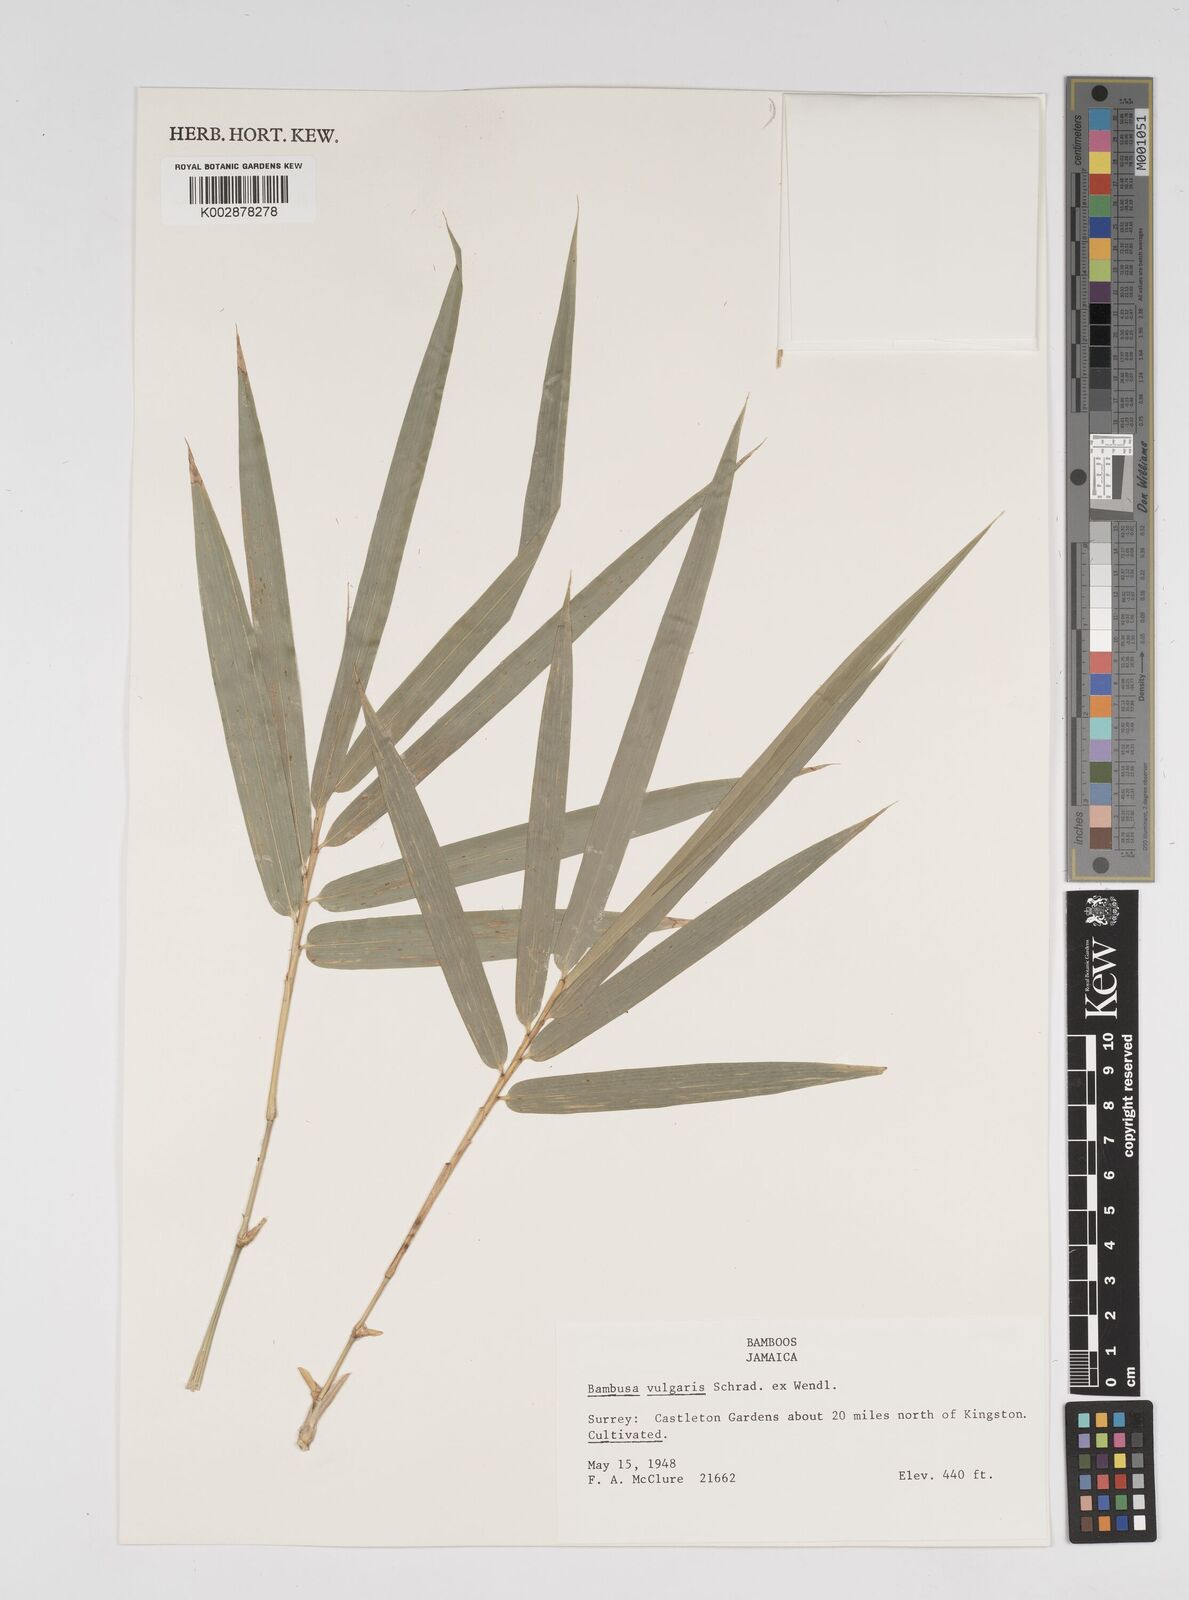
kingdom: Plantae
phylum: Tracheophyta
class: Liliopsida
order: Poales
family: Poaceae
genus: Bambusa
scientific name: Bambusa vulgaris
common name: Common bamboo
